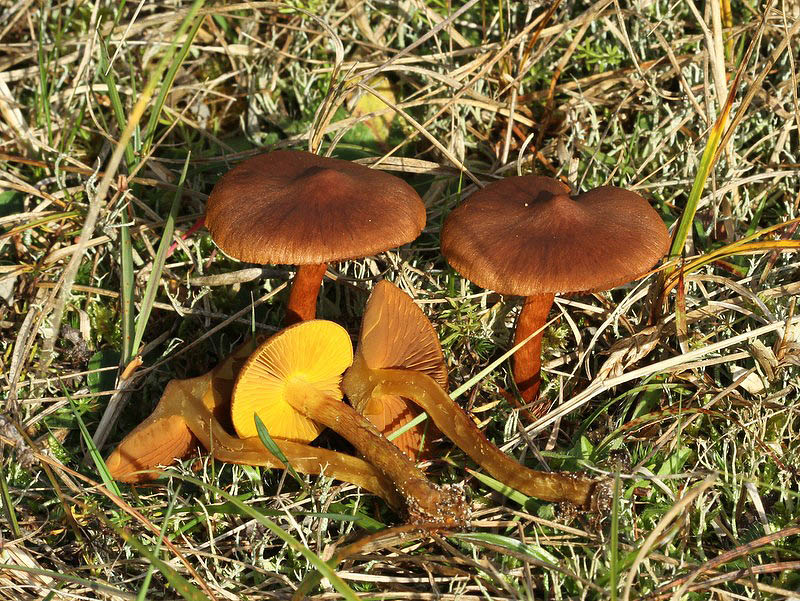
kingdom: Fungi
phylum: Basidiomycota
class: Agaricomycetes
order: Agaricales
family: Cortinariaceae
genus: Cortinarius
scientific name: Cortinarius
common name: gulbladet slørhat
